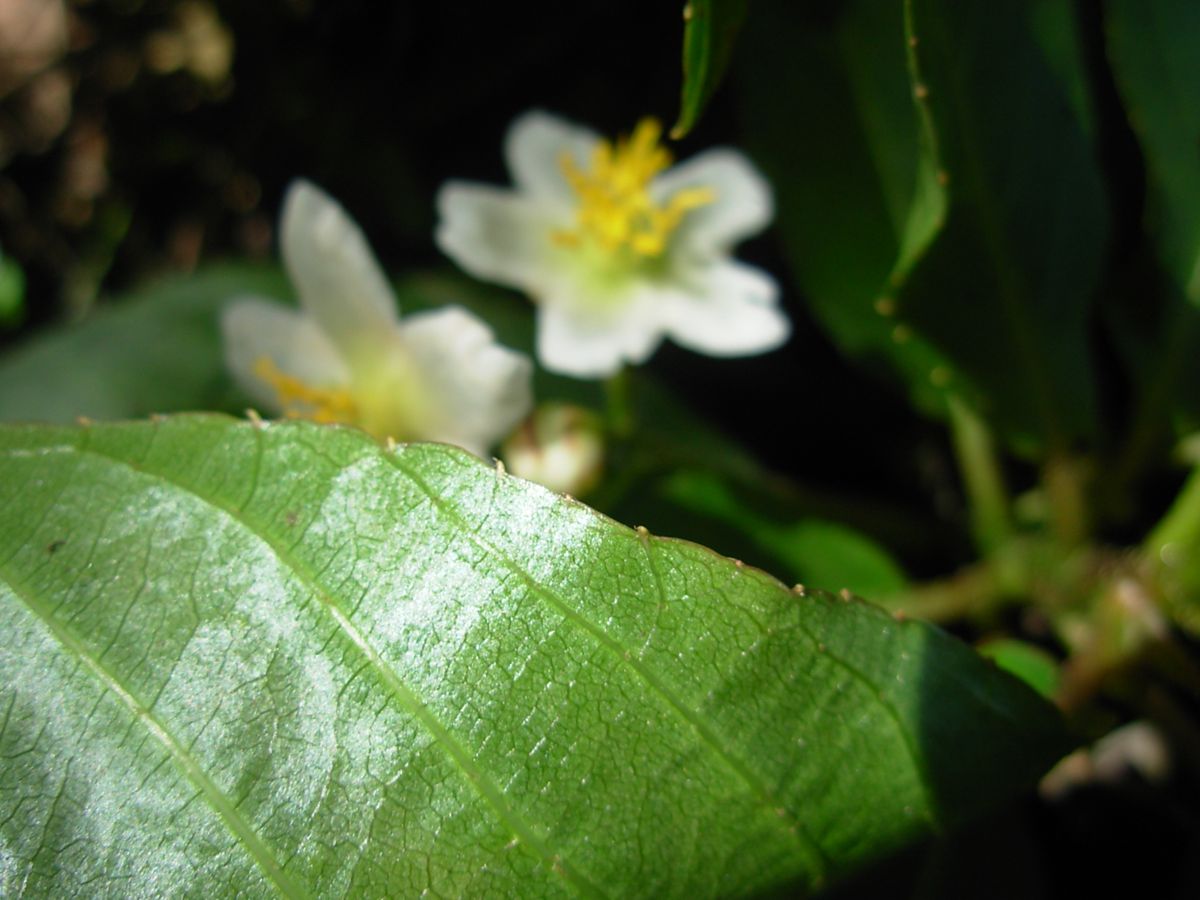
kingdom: Plantae
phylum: Tracheophyta
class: Magnoliopsida
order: Ericales
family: Actinidiaceae
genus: Saurauia
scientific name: Saurauia kegeliana
